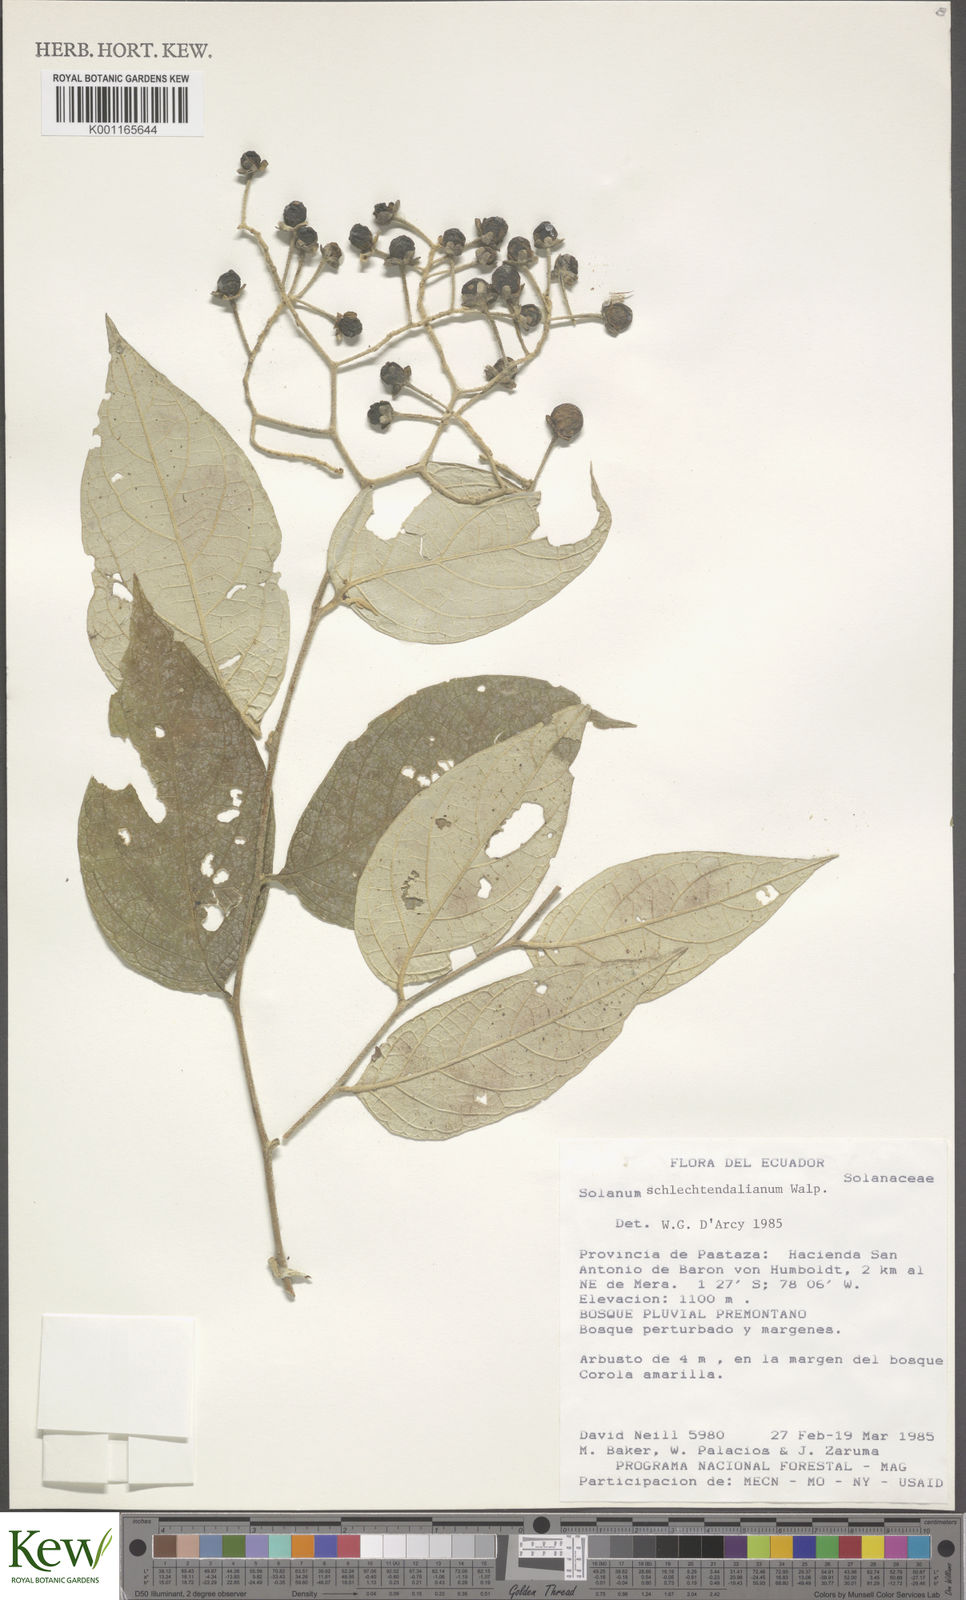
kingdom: Plantae
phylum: Tracheophyta
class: Magnoliopsida
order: Solanales
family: Solanaceae
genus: Solanum
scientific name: Solanum schlechtendalianum
